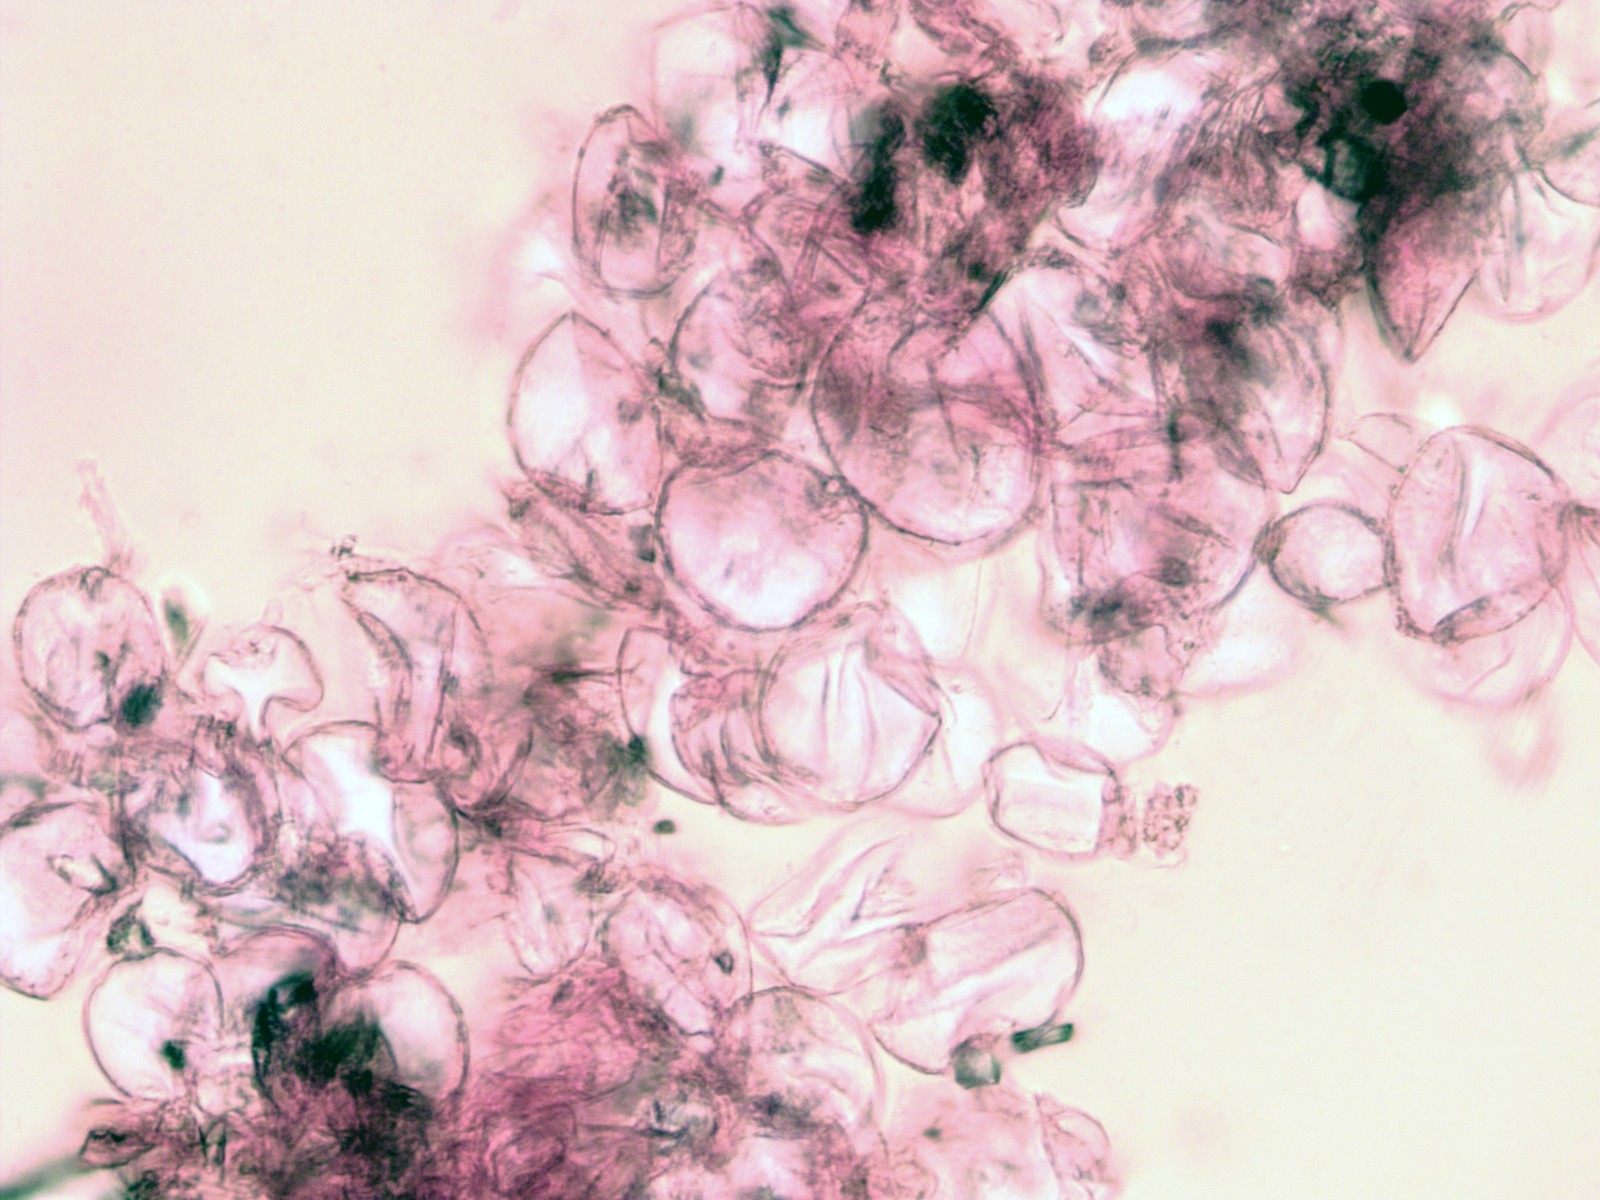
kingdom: Fungi
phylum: Basidiomycota
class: Agaricomycetes
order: Agaricales
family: Psathyrellaceae
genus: Coprinopsis
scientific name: Coprinopsis cortinata
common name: slør-blækhat
